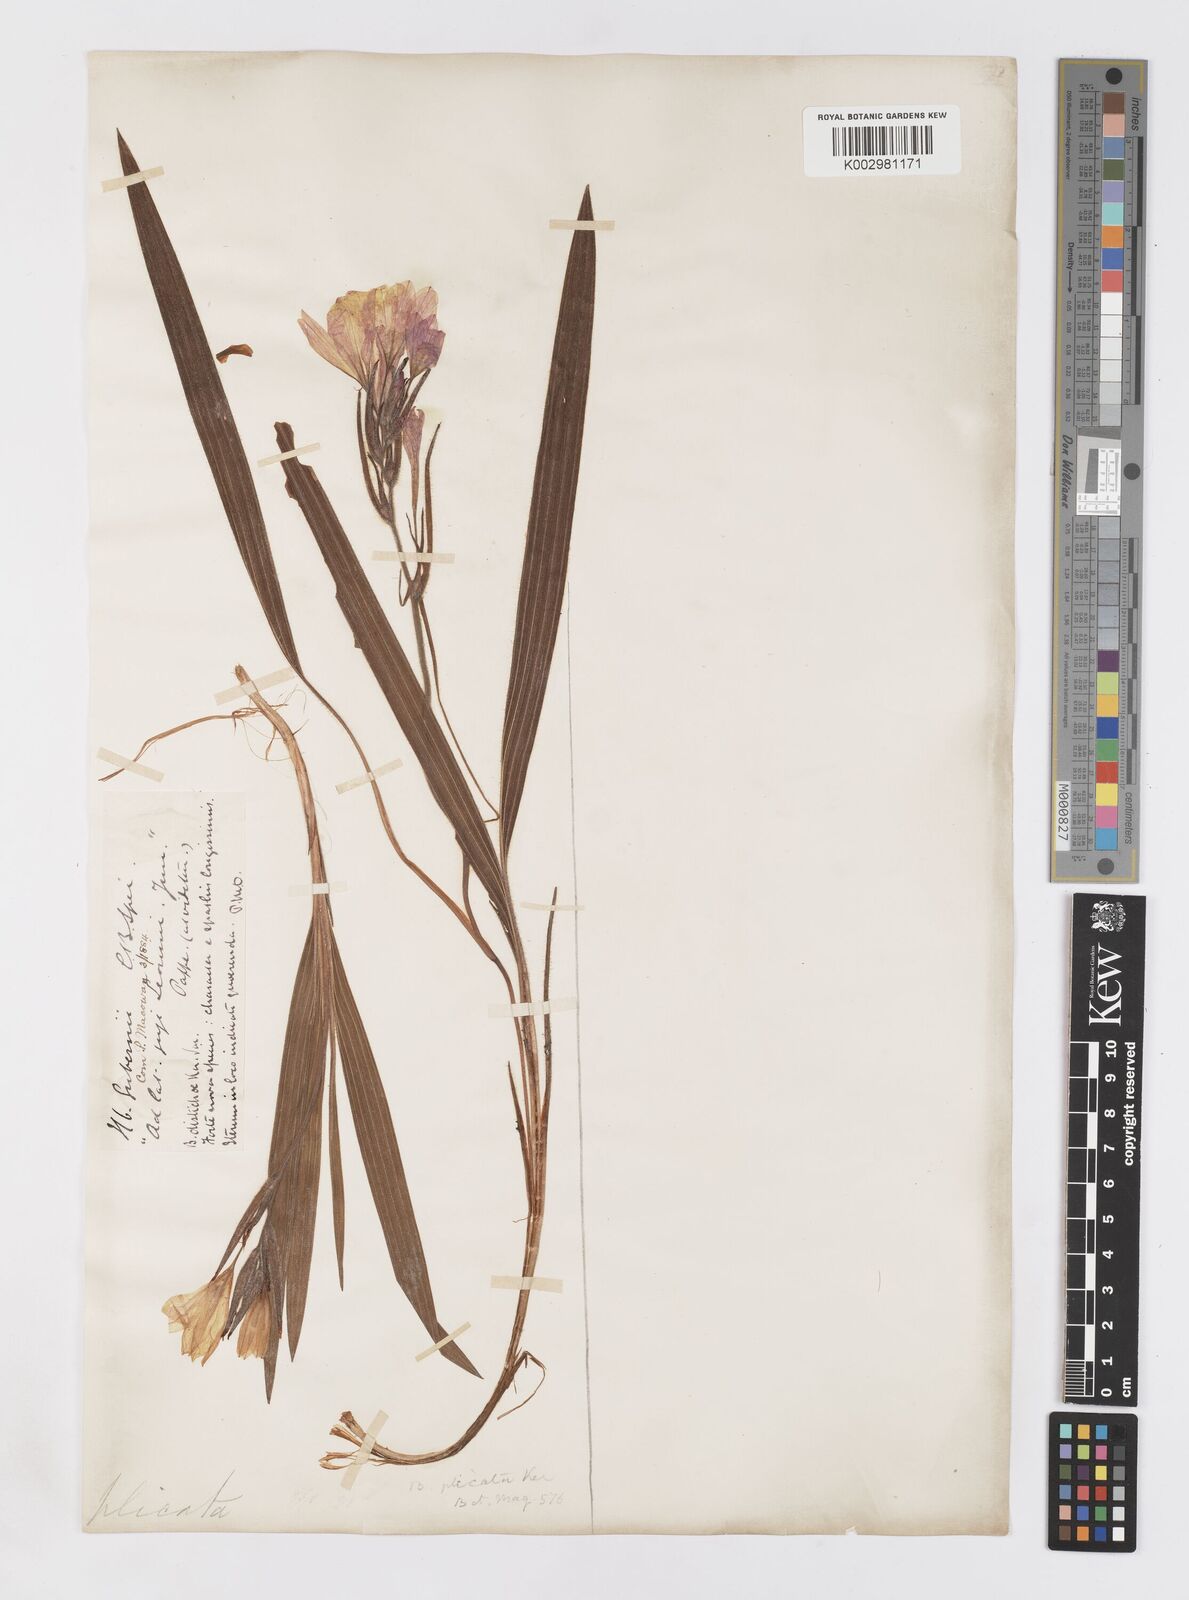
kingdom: Plantae
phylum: Tracheophyta
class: Liliopsida
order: Asparagales
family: Iridaceae
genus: Babiana
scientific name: Babiana
